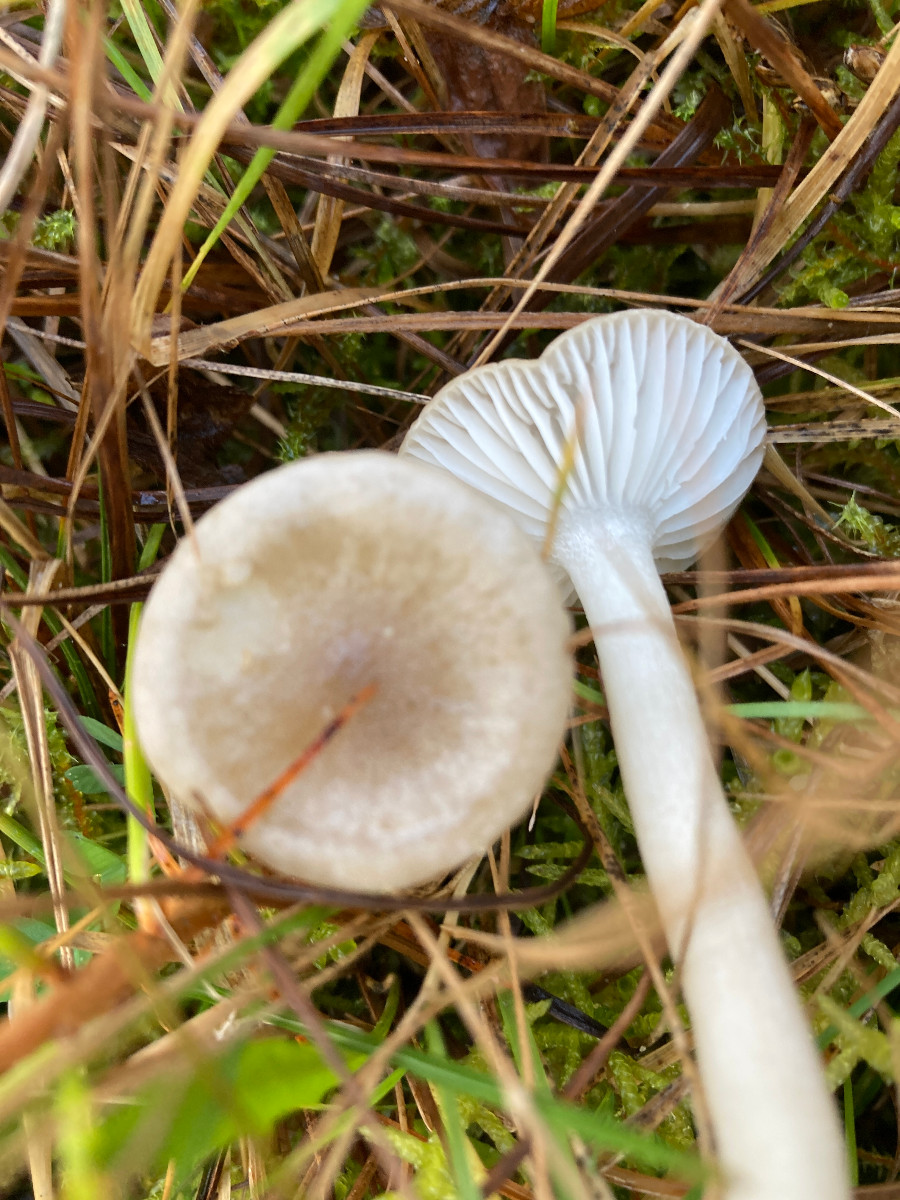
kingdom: Fungi
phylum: Basidiomycota
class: Agaricomycetes
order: Agaricales
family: Hygrophoraceae
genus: Hygrophorus
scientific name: Hygrophorus agathosmus
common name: vellugtende sneglehat
